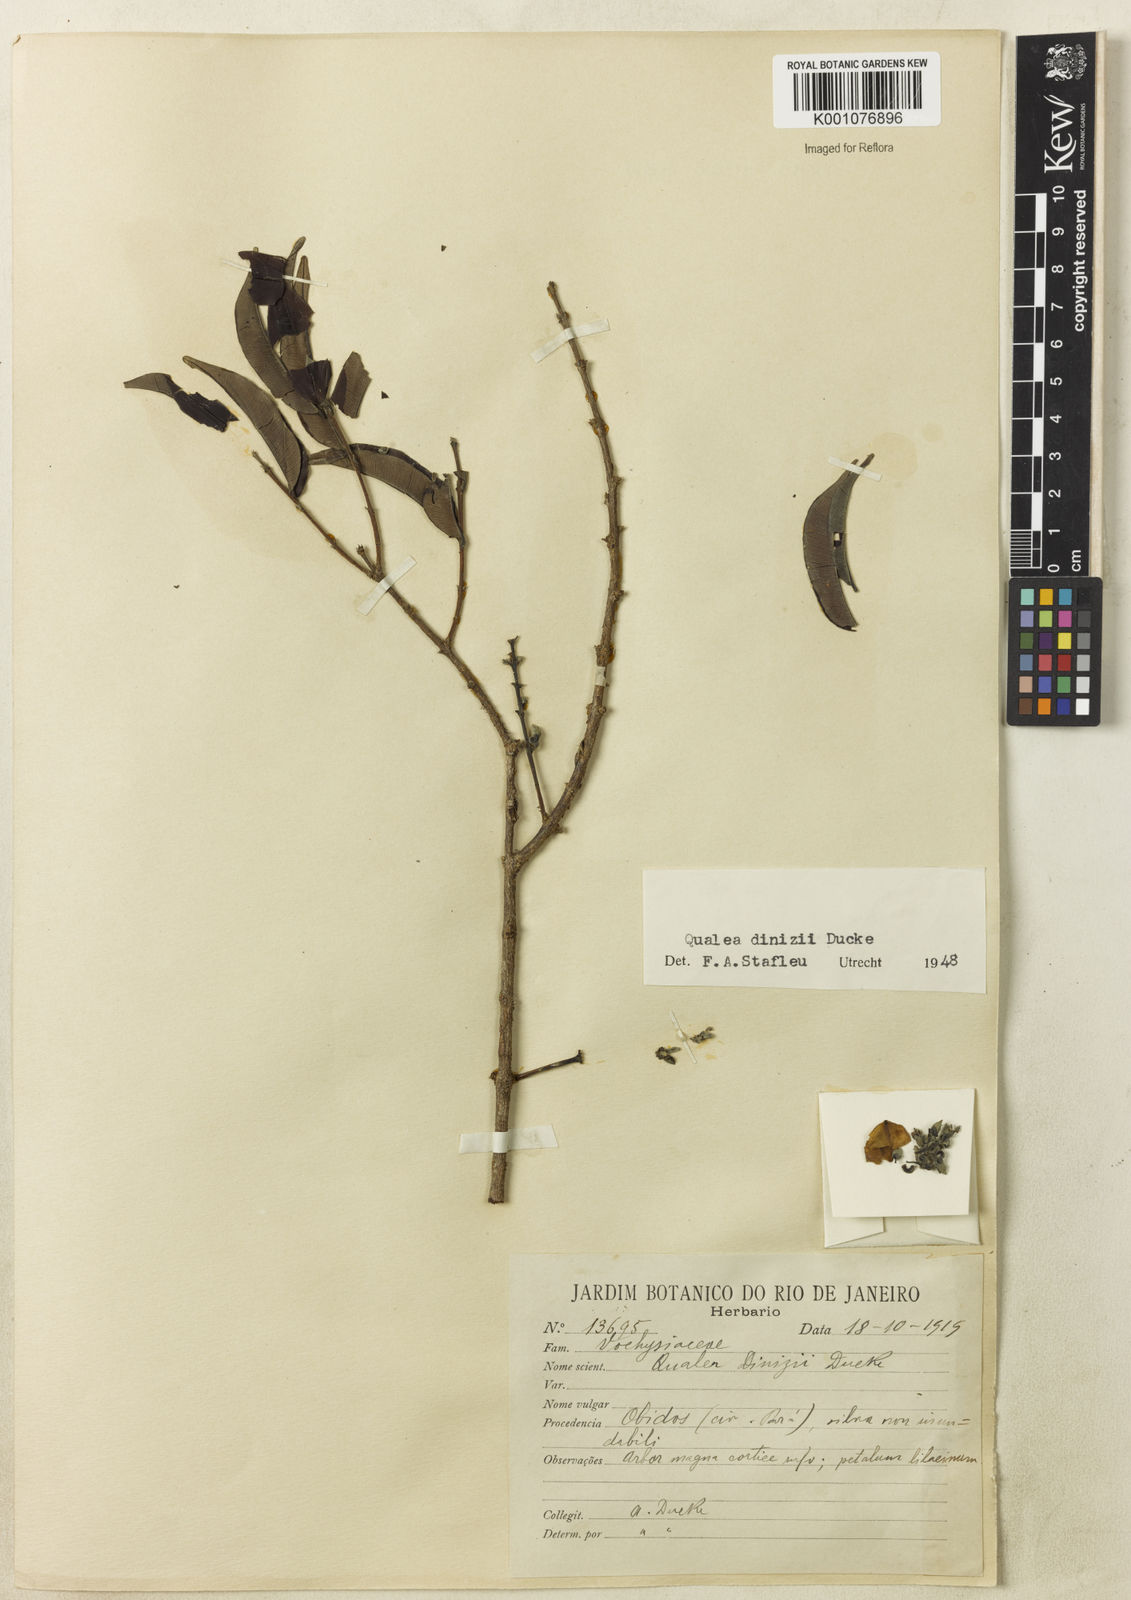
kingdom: Plantae
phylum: Tracheophyta
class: Magnoliopsida
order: Myrtales
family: Vochysiaceae
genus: Qualea
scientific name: Qualea dinizii
